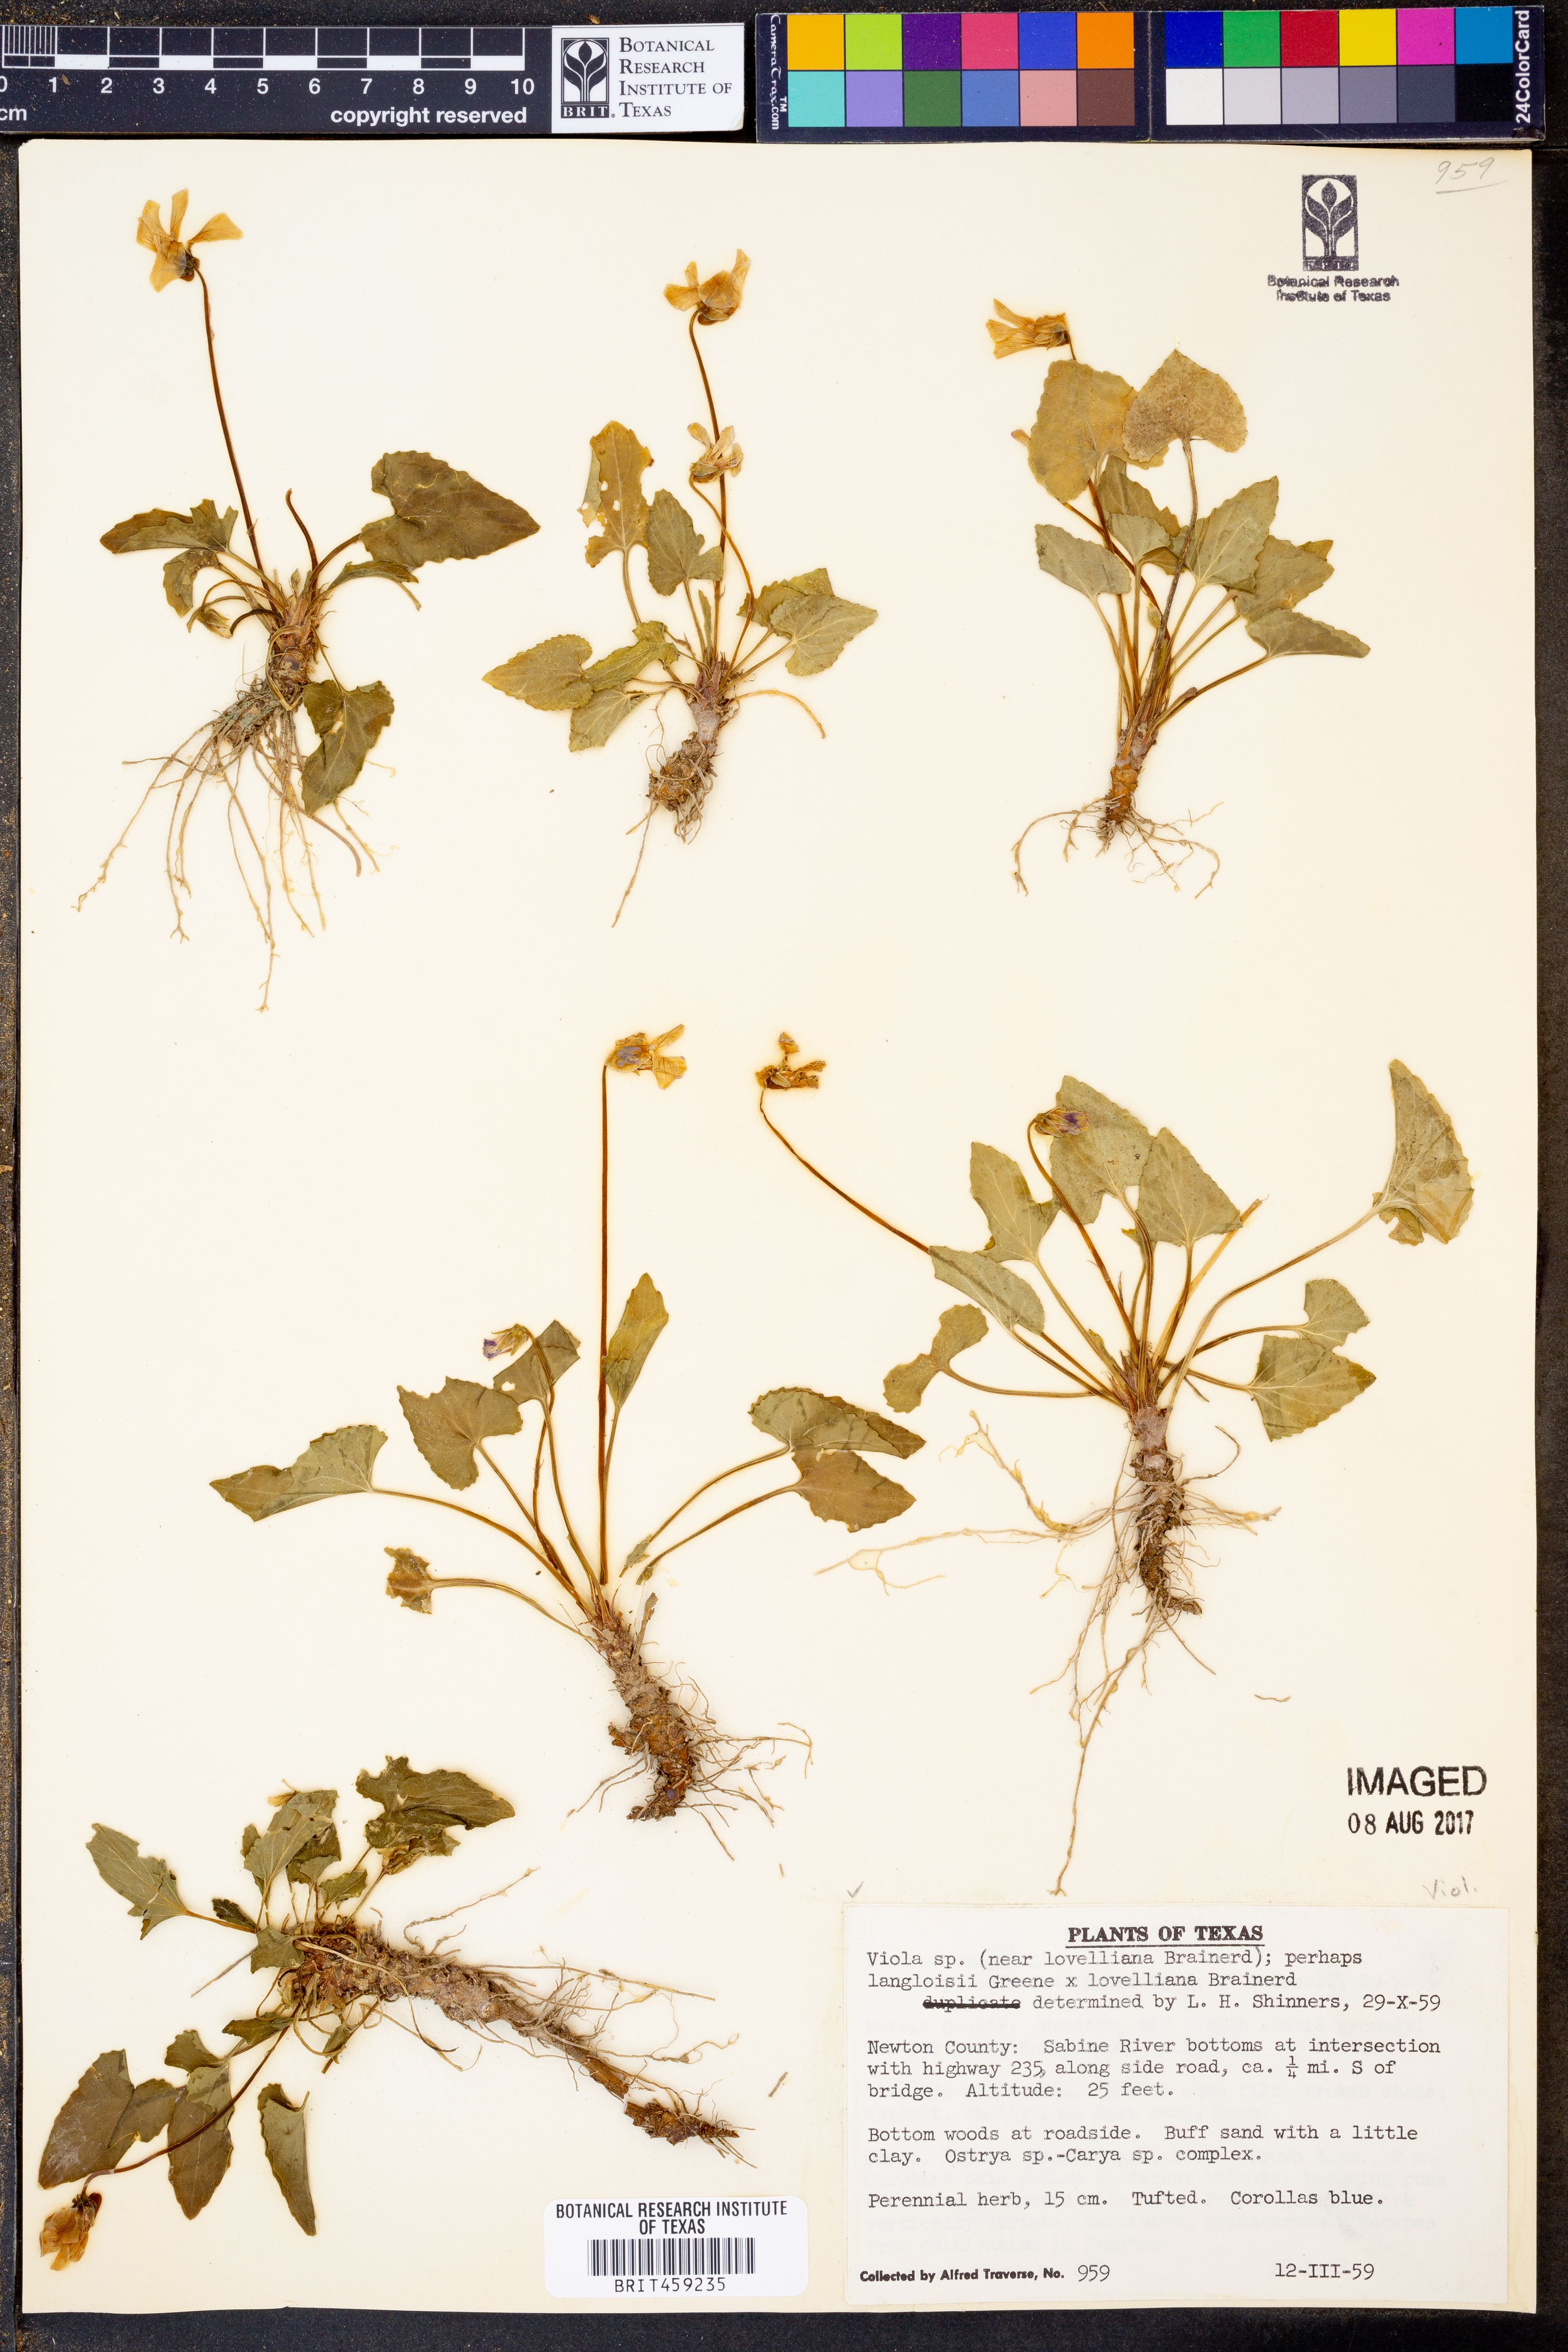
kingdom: Plantae
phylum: Tracheophyta
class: Magnoliopsida
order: Malpighiales
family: Violaceae
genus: Viola
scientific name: Viola
